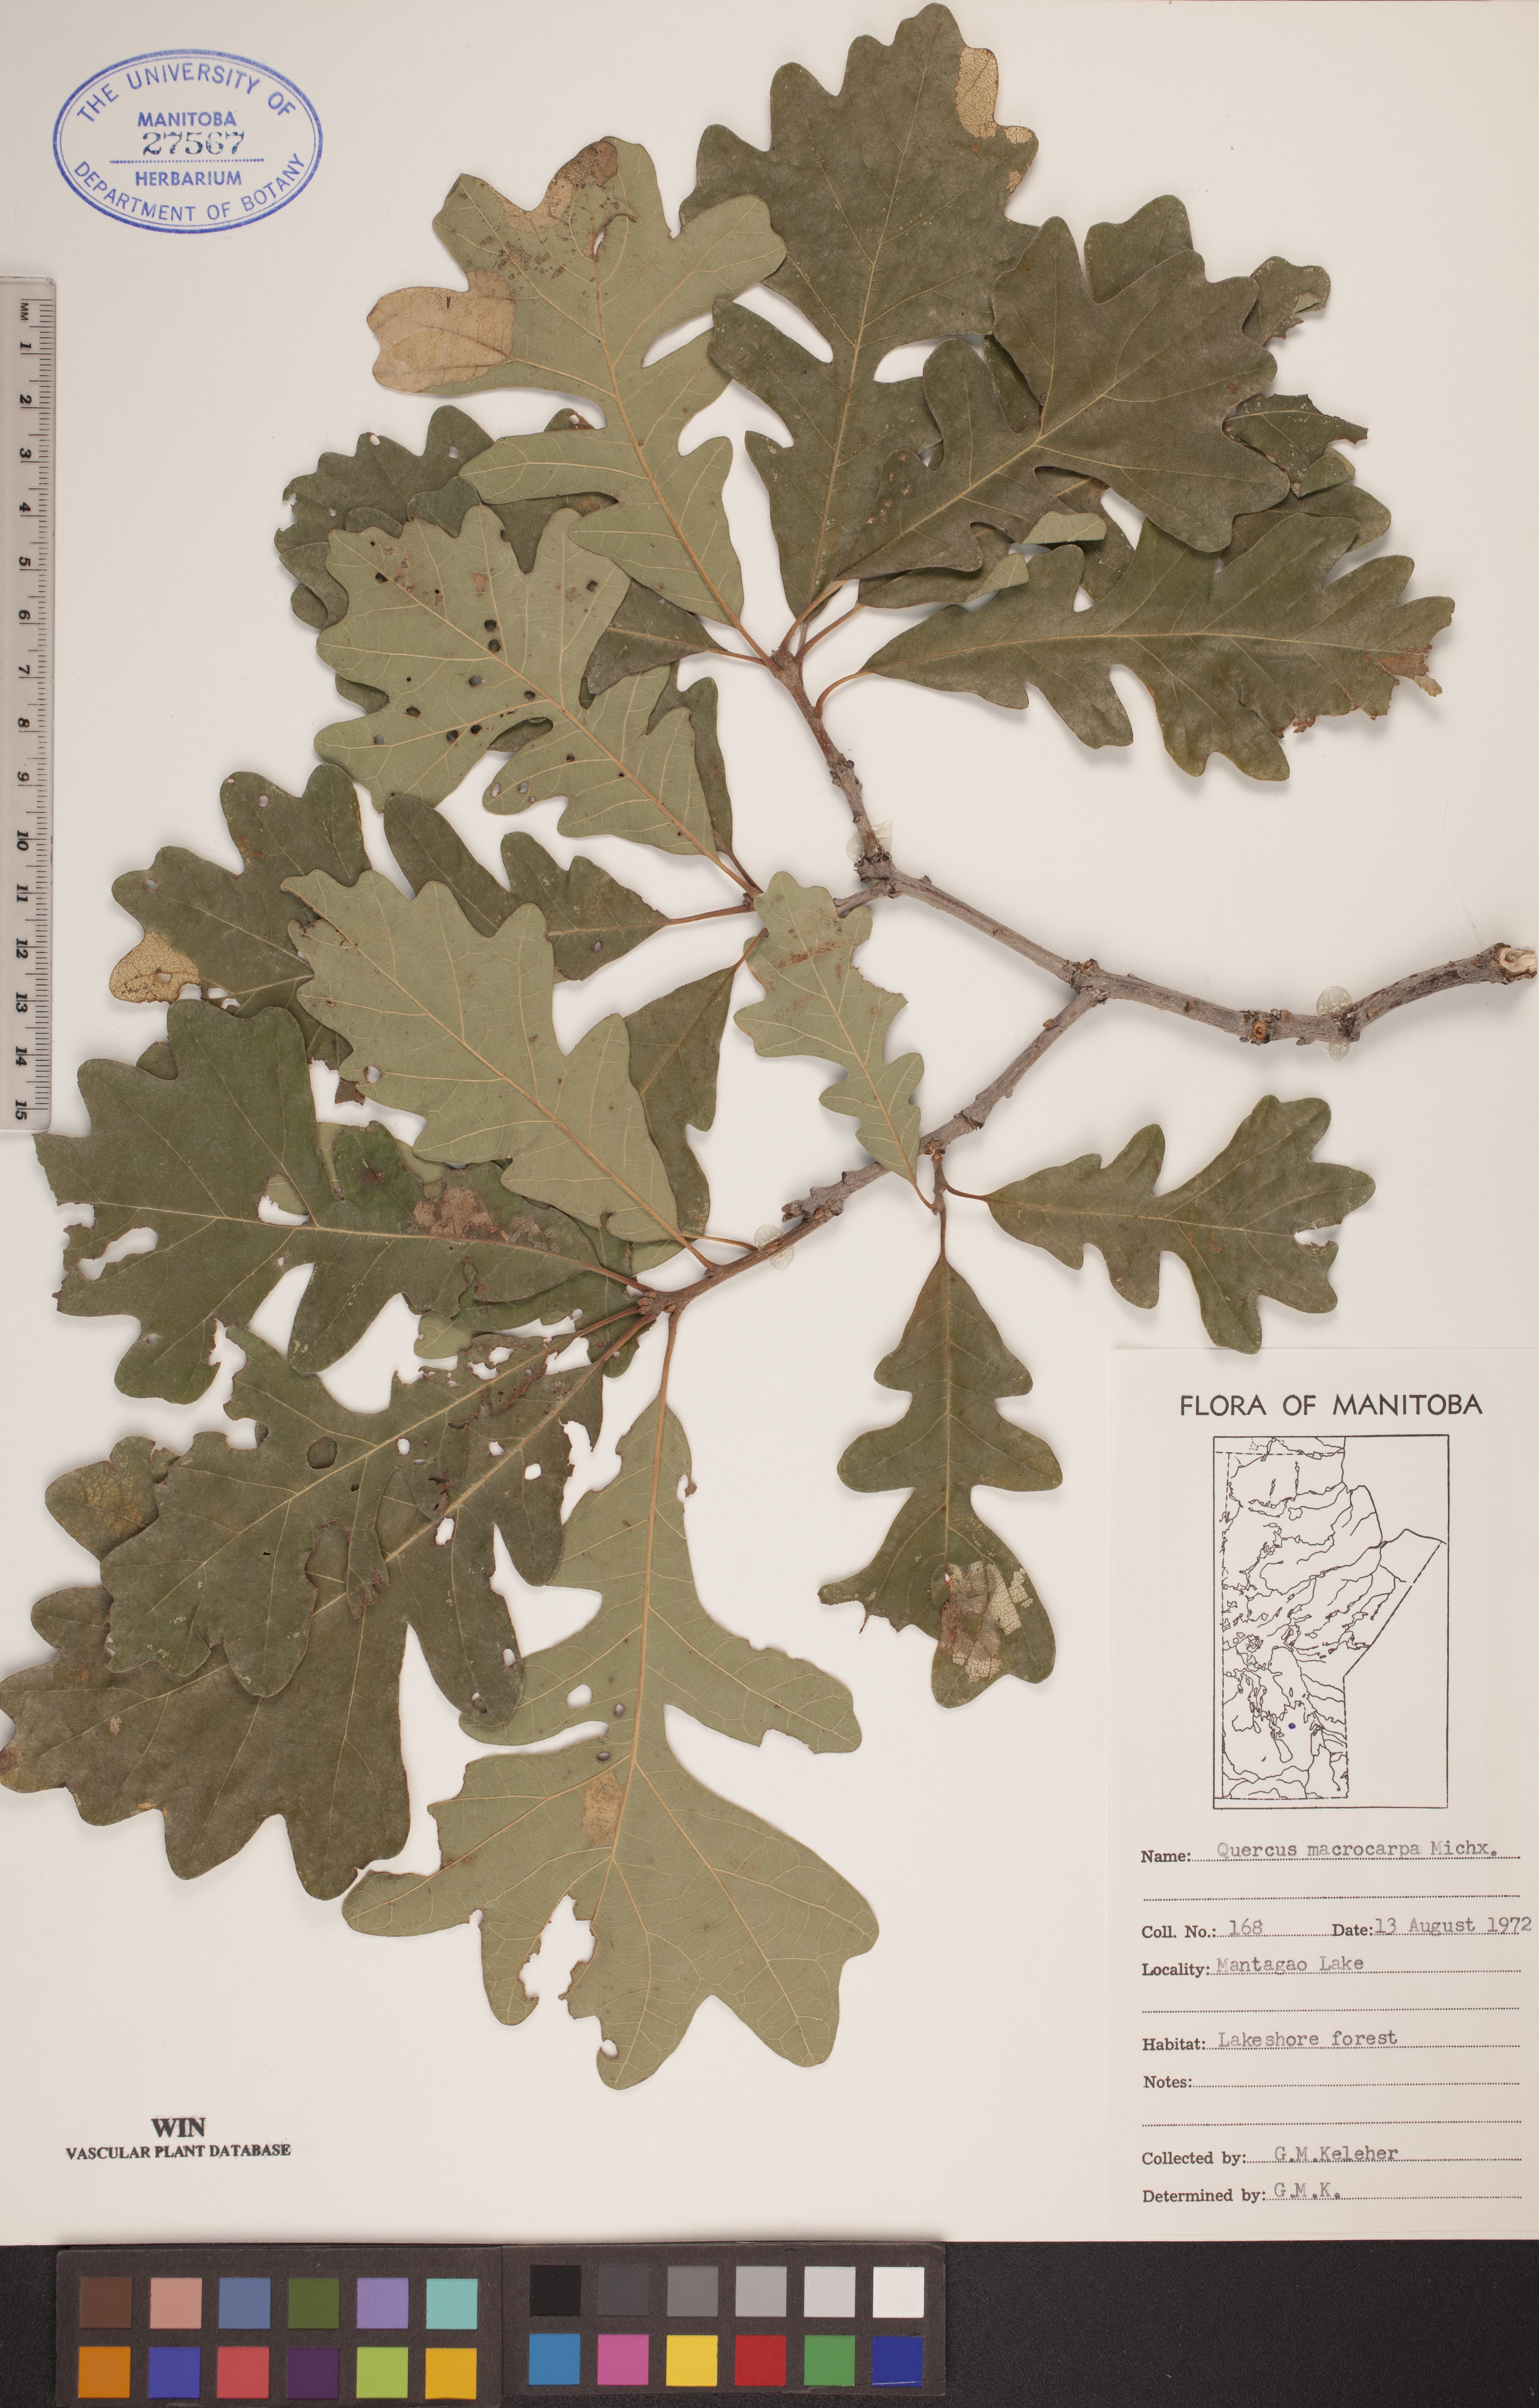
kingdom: Plantae
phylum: Tracheophyta
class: Magnoliopsida
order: Fagales
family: Fagaceae
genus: Quercus
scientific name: Quercus macrocarpa
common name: Bur oak
